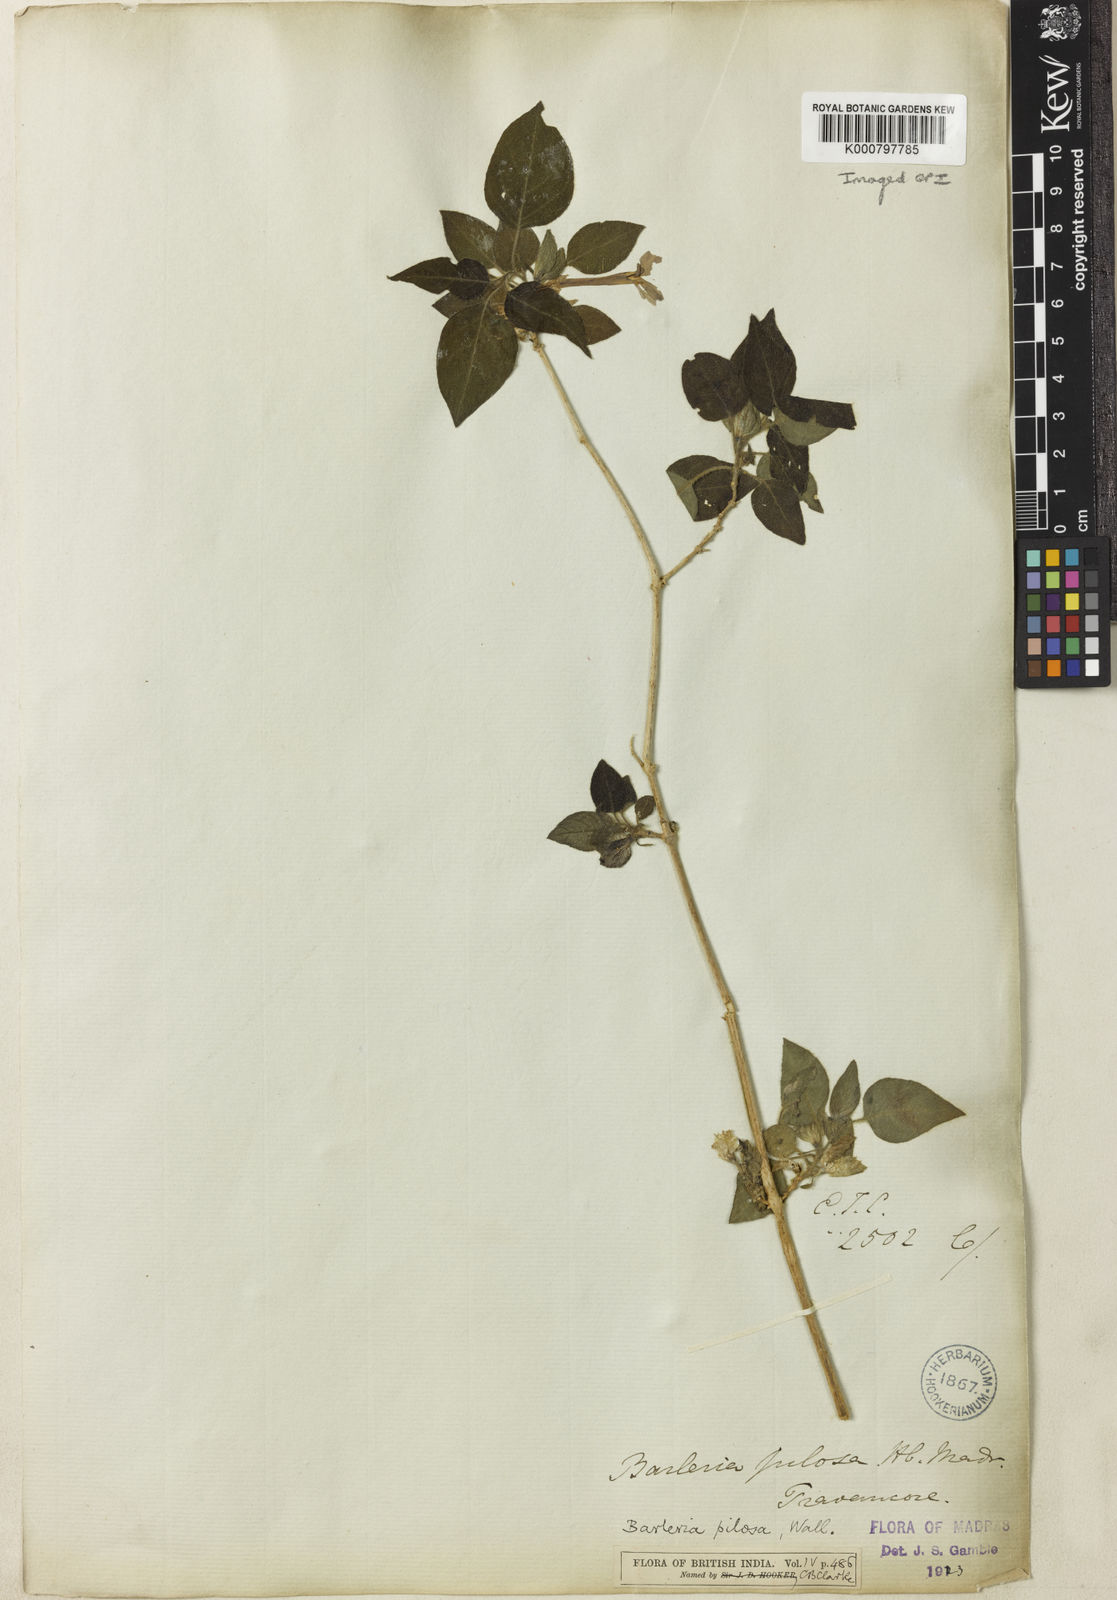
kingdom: Plantae
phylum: Tracheophyta
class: Magnoliopsida
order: Lamiales
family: Acanthaceae
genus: Barleria
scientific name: Barleria pilosa
